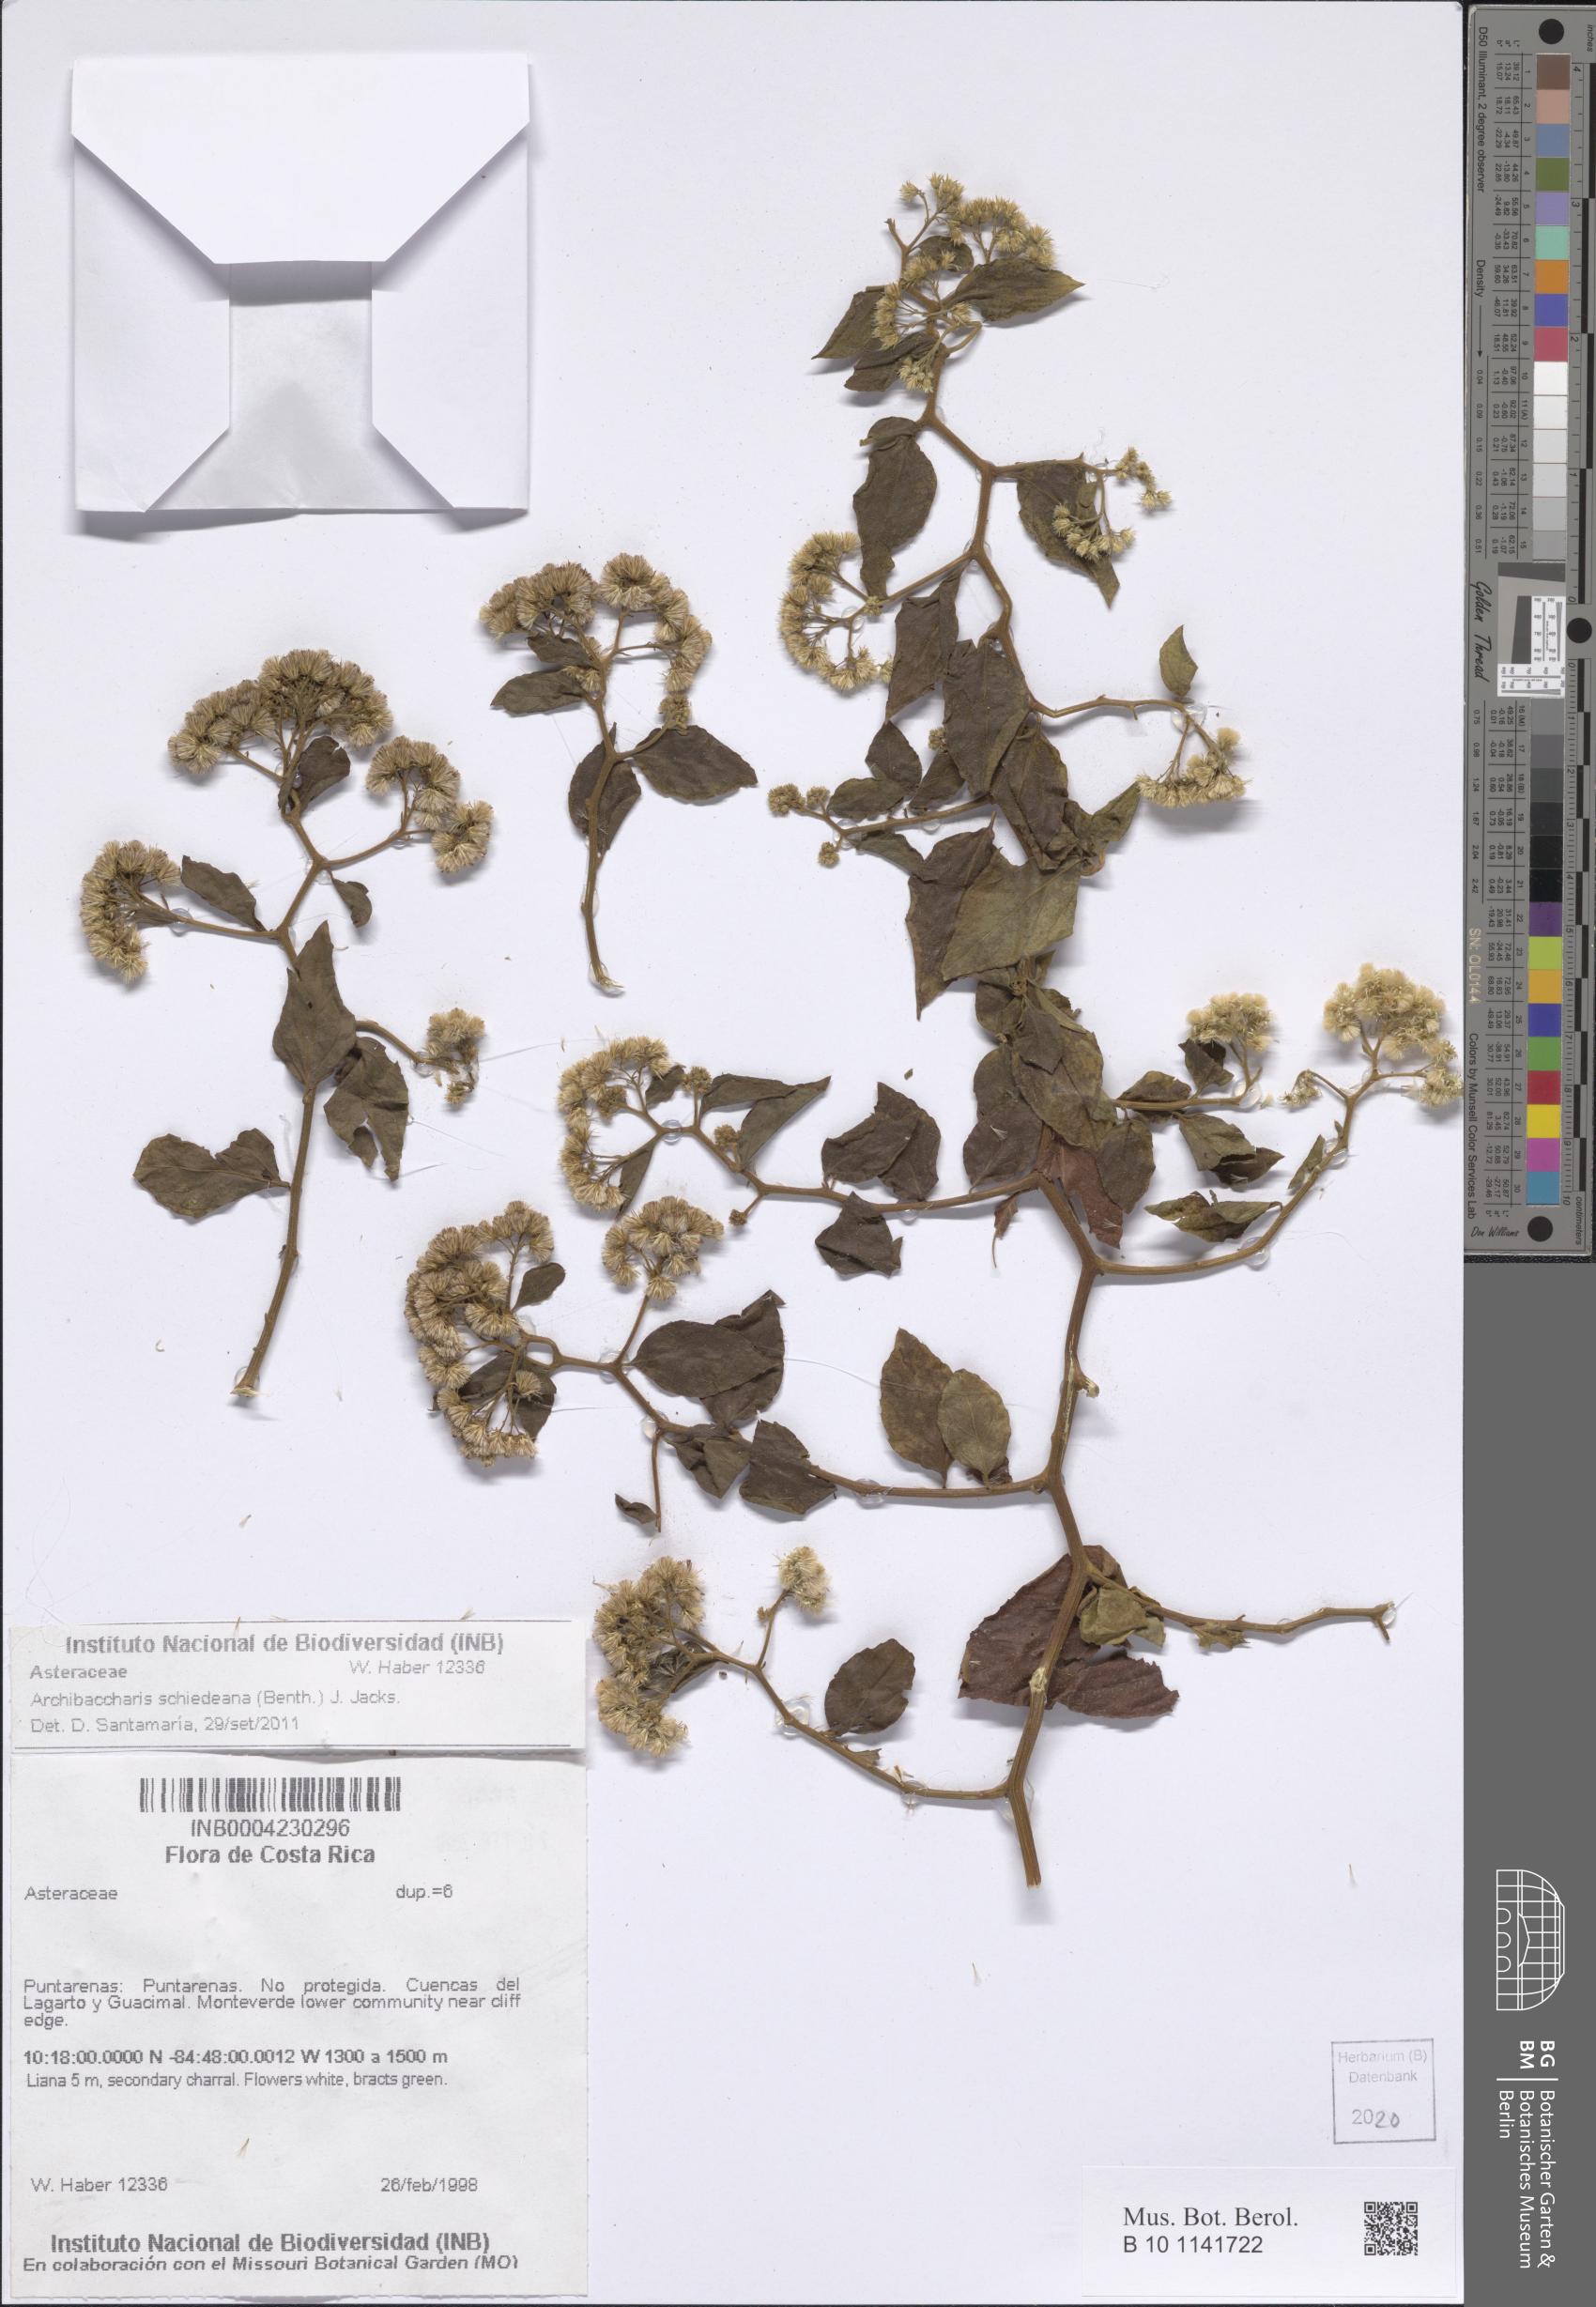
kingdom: Plantae
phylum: Tracheophyta
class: Magnoliopsida
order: Asterales
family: Asteraceae
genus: Archibaccharis
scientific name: Archibaccharis schiedeana
